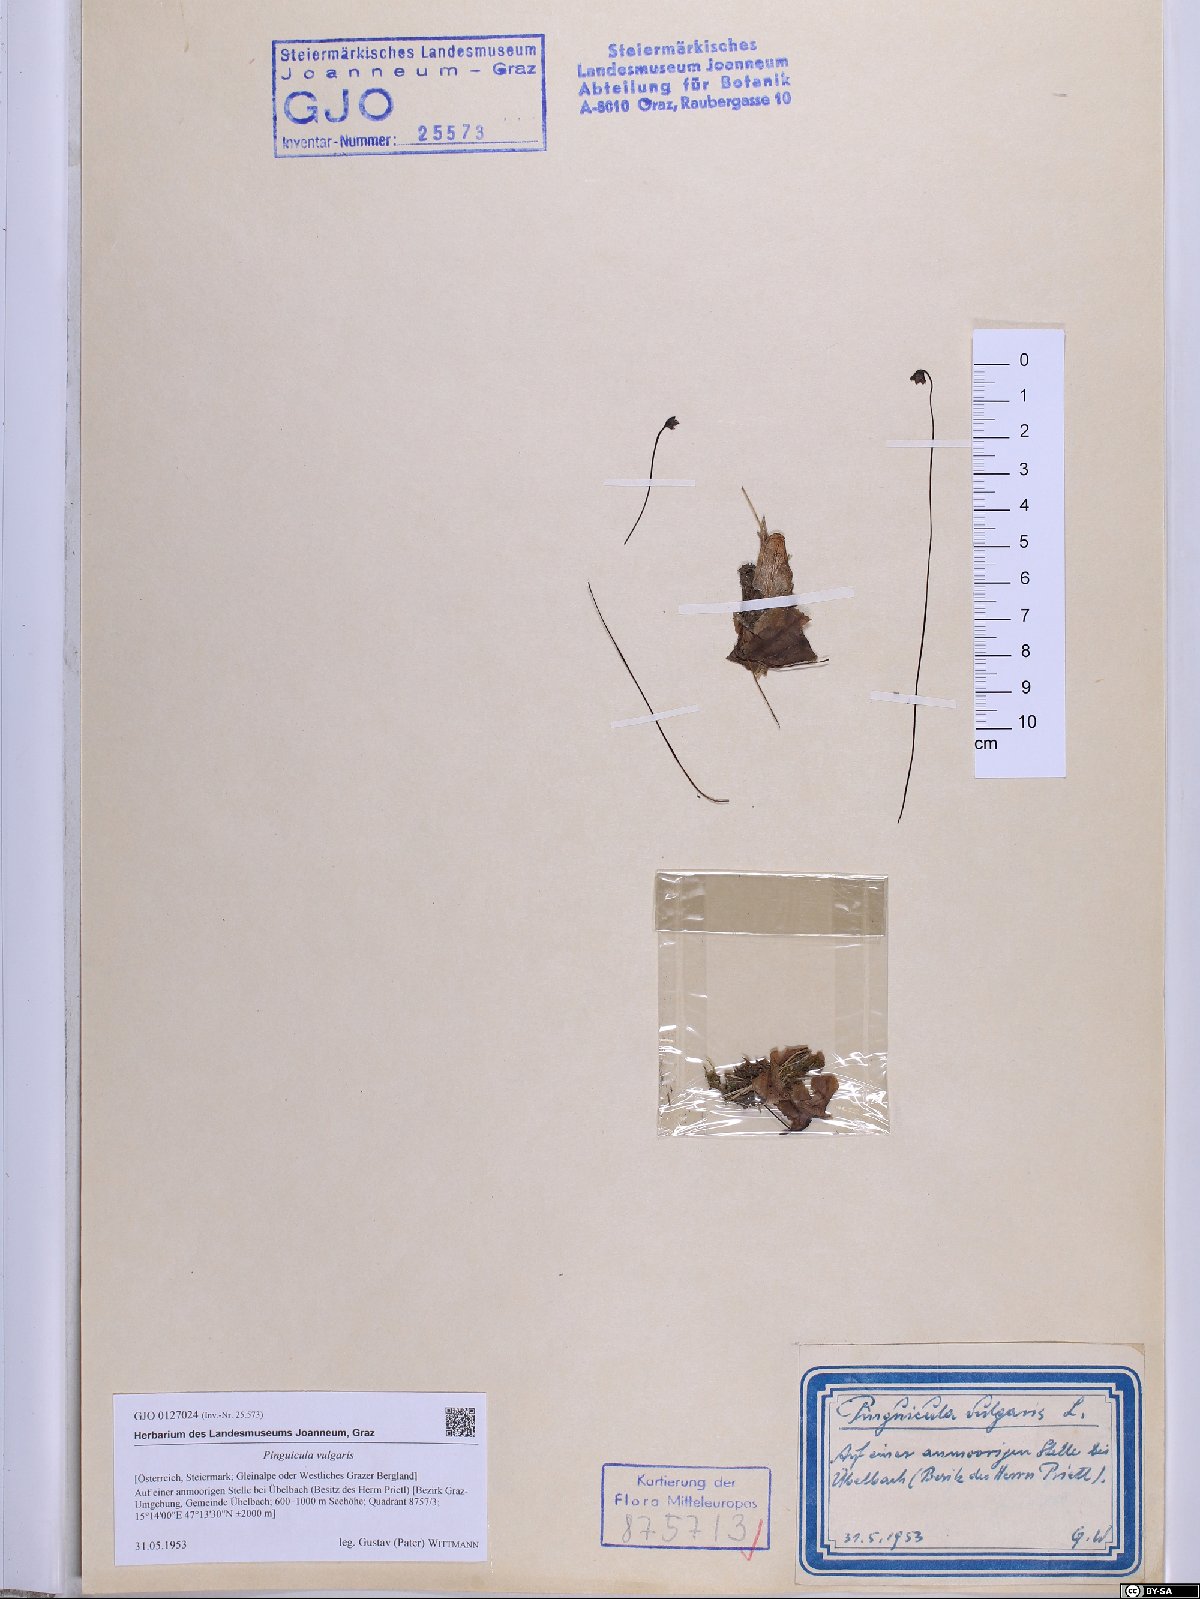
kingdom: Plantae
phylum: Tracheophyta
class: Magnoliopsida
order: Lamiales
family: Lentibulariaceae
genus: Pinguicula
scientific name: Pinguicula vulgaris
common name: Common butterwort
